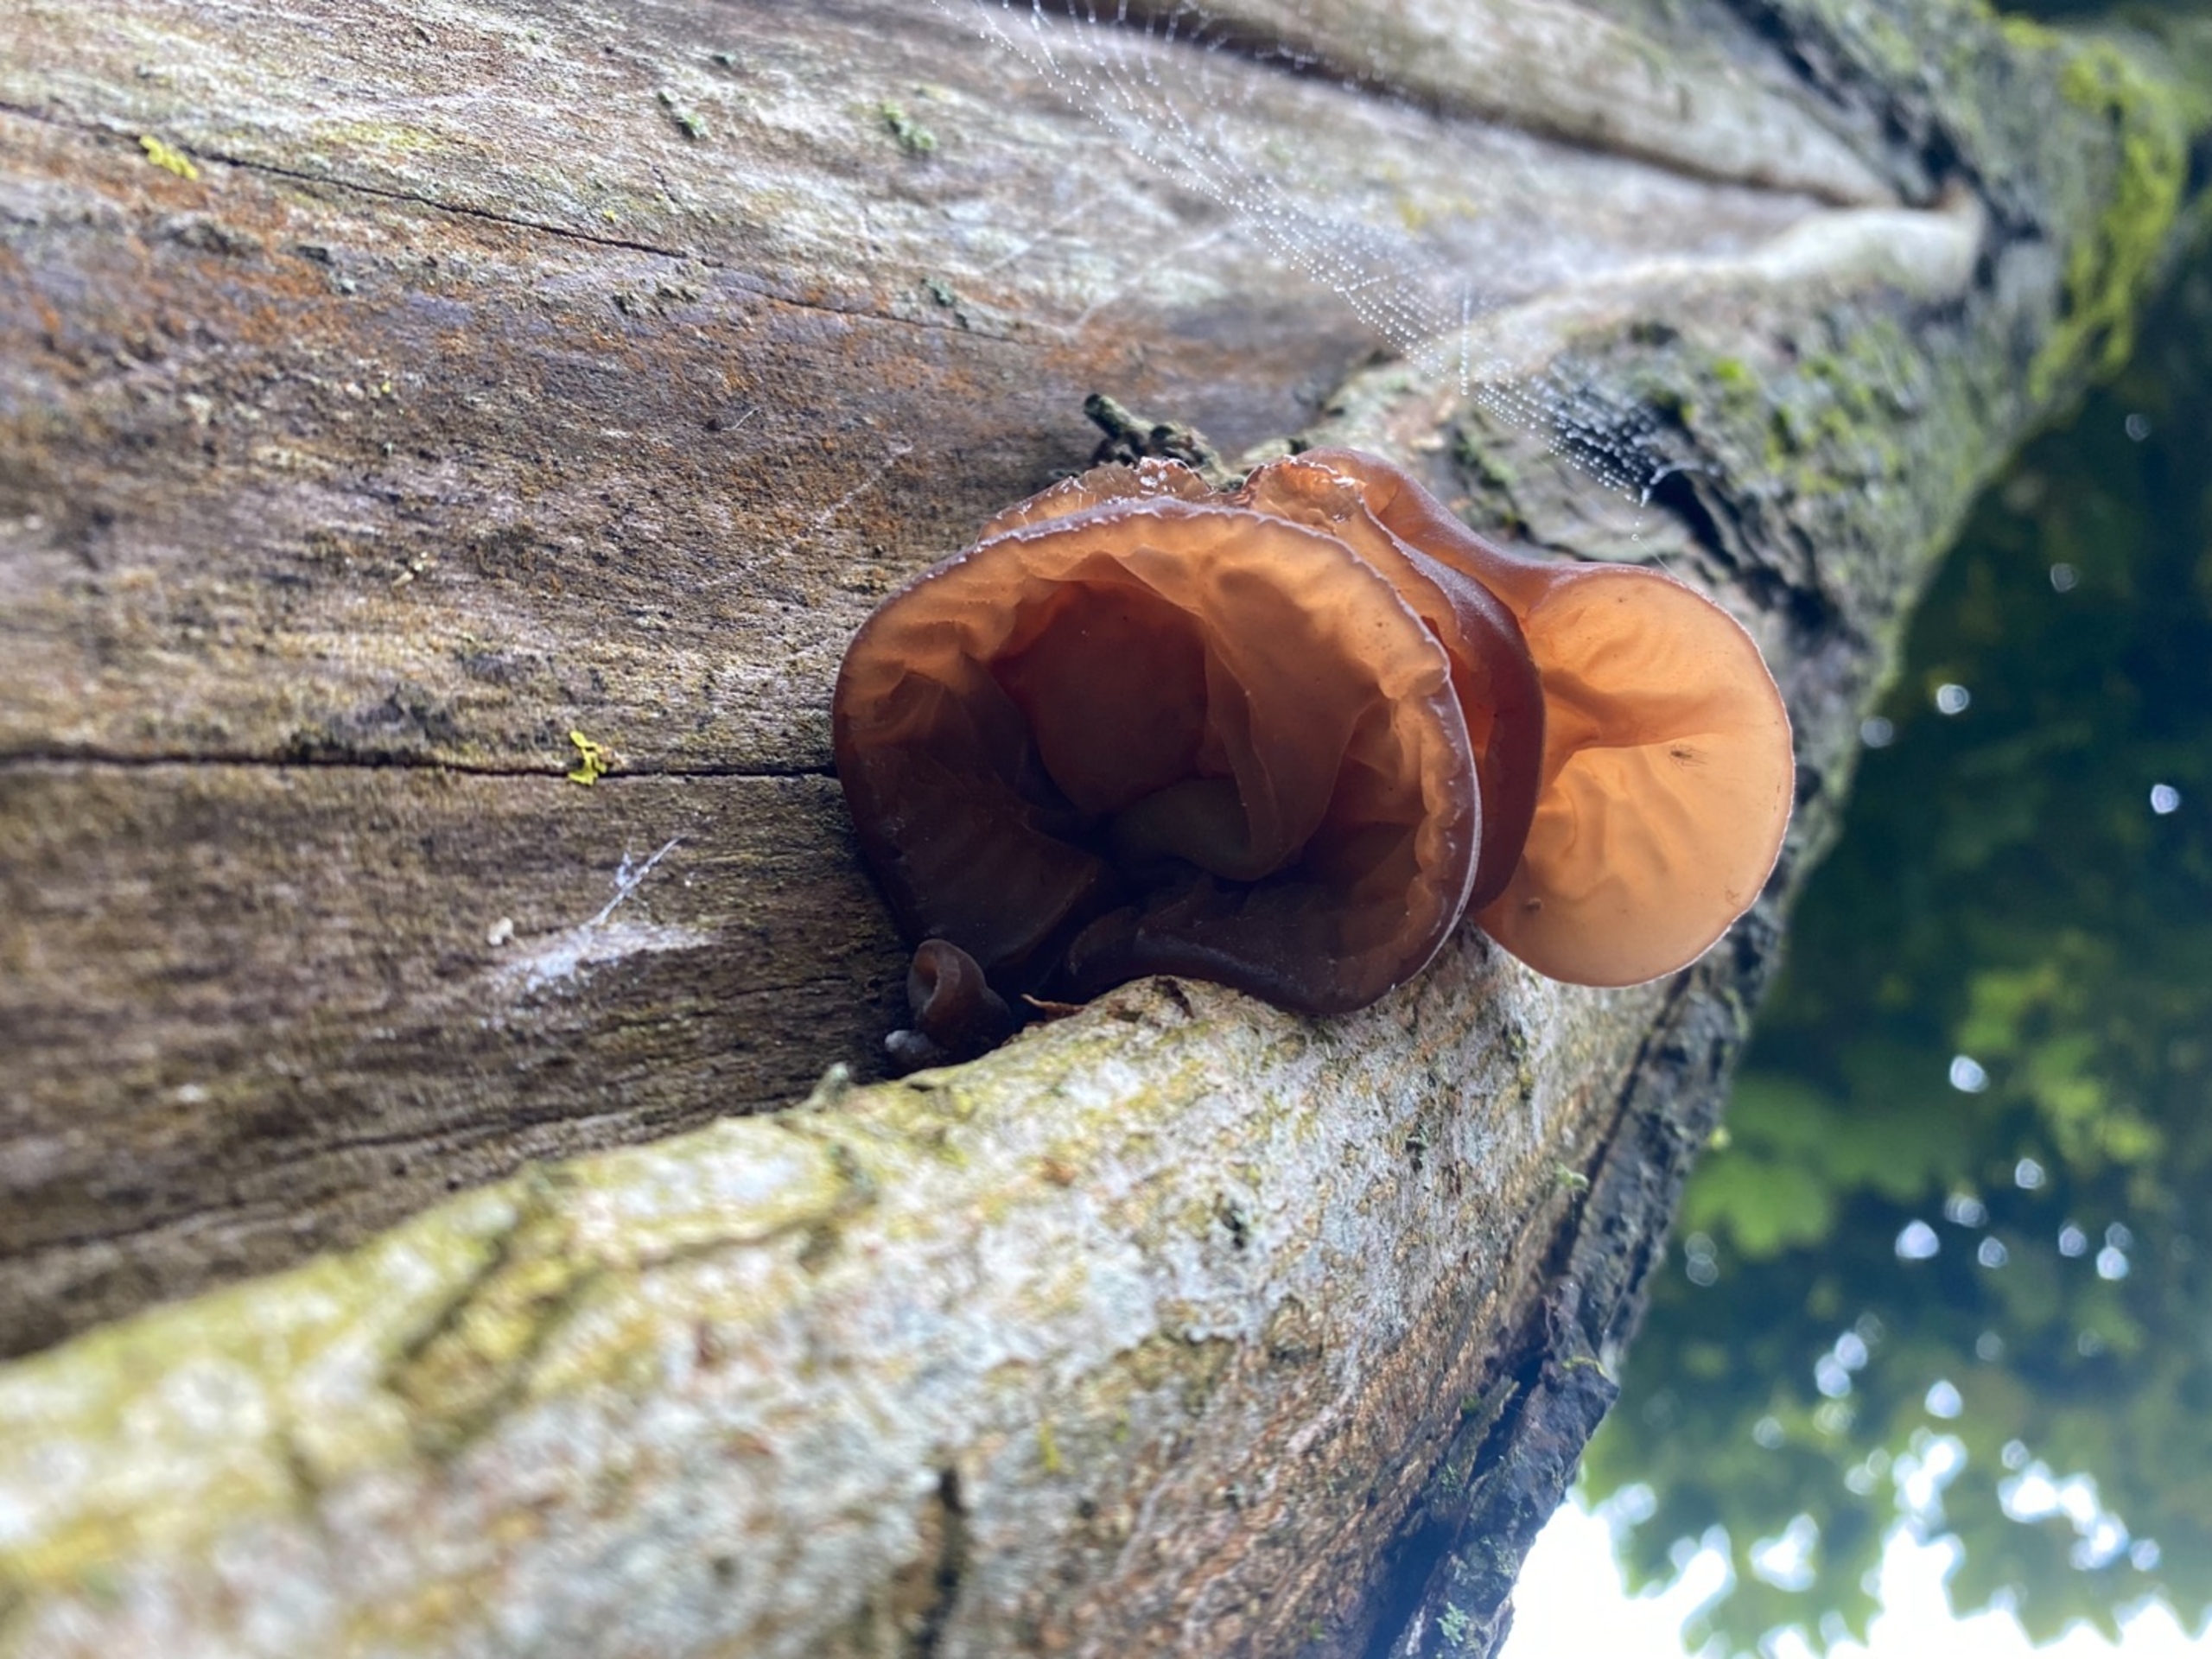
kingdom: Fungi
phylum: Basidiomycota
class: Agaricomycetes
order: Auriculariales
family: Auriculariaceae
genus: Auricularia
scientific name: Auricularia
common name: Judasøre
